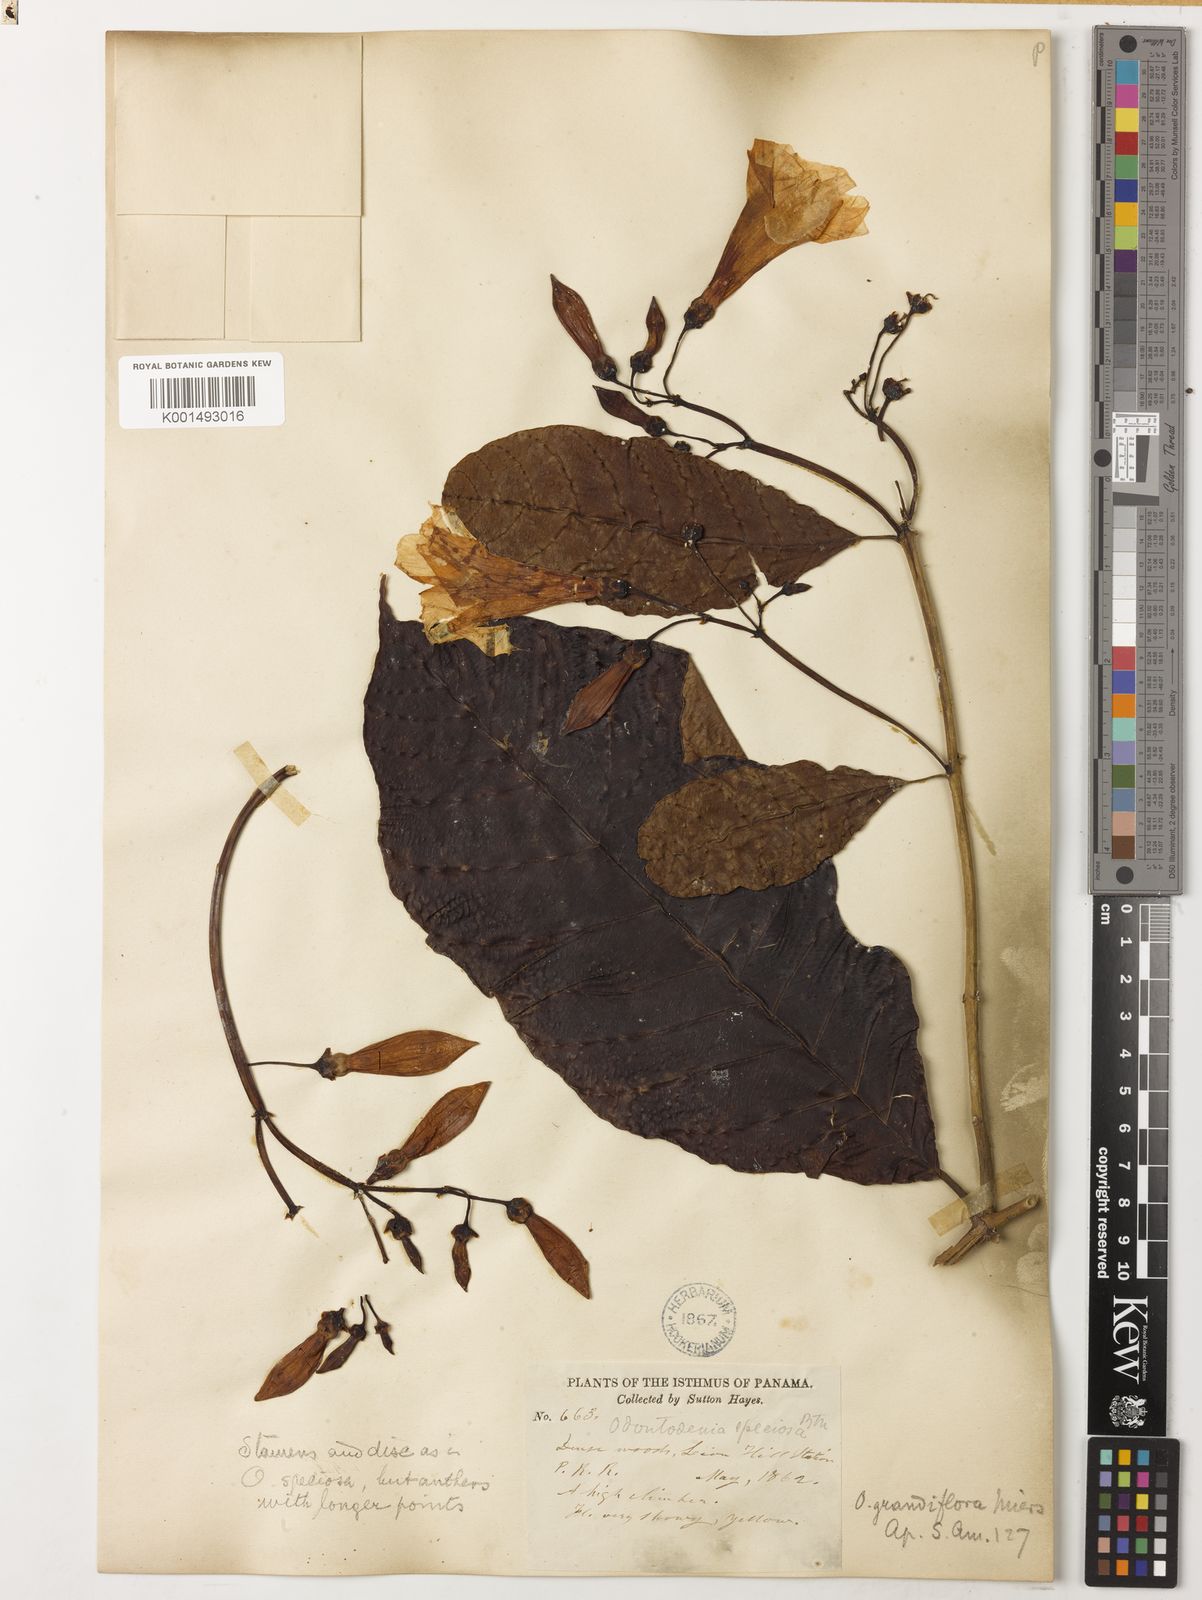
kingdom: Plantae
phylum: Tracheophyta
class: Magnoliopsida
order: Gentianales
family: Apocynaceae
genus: Odontadenia
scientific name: Odontadenia semidigyna
